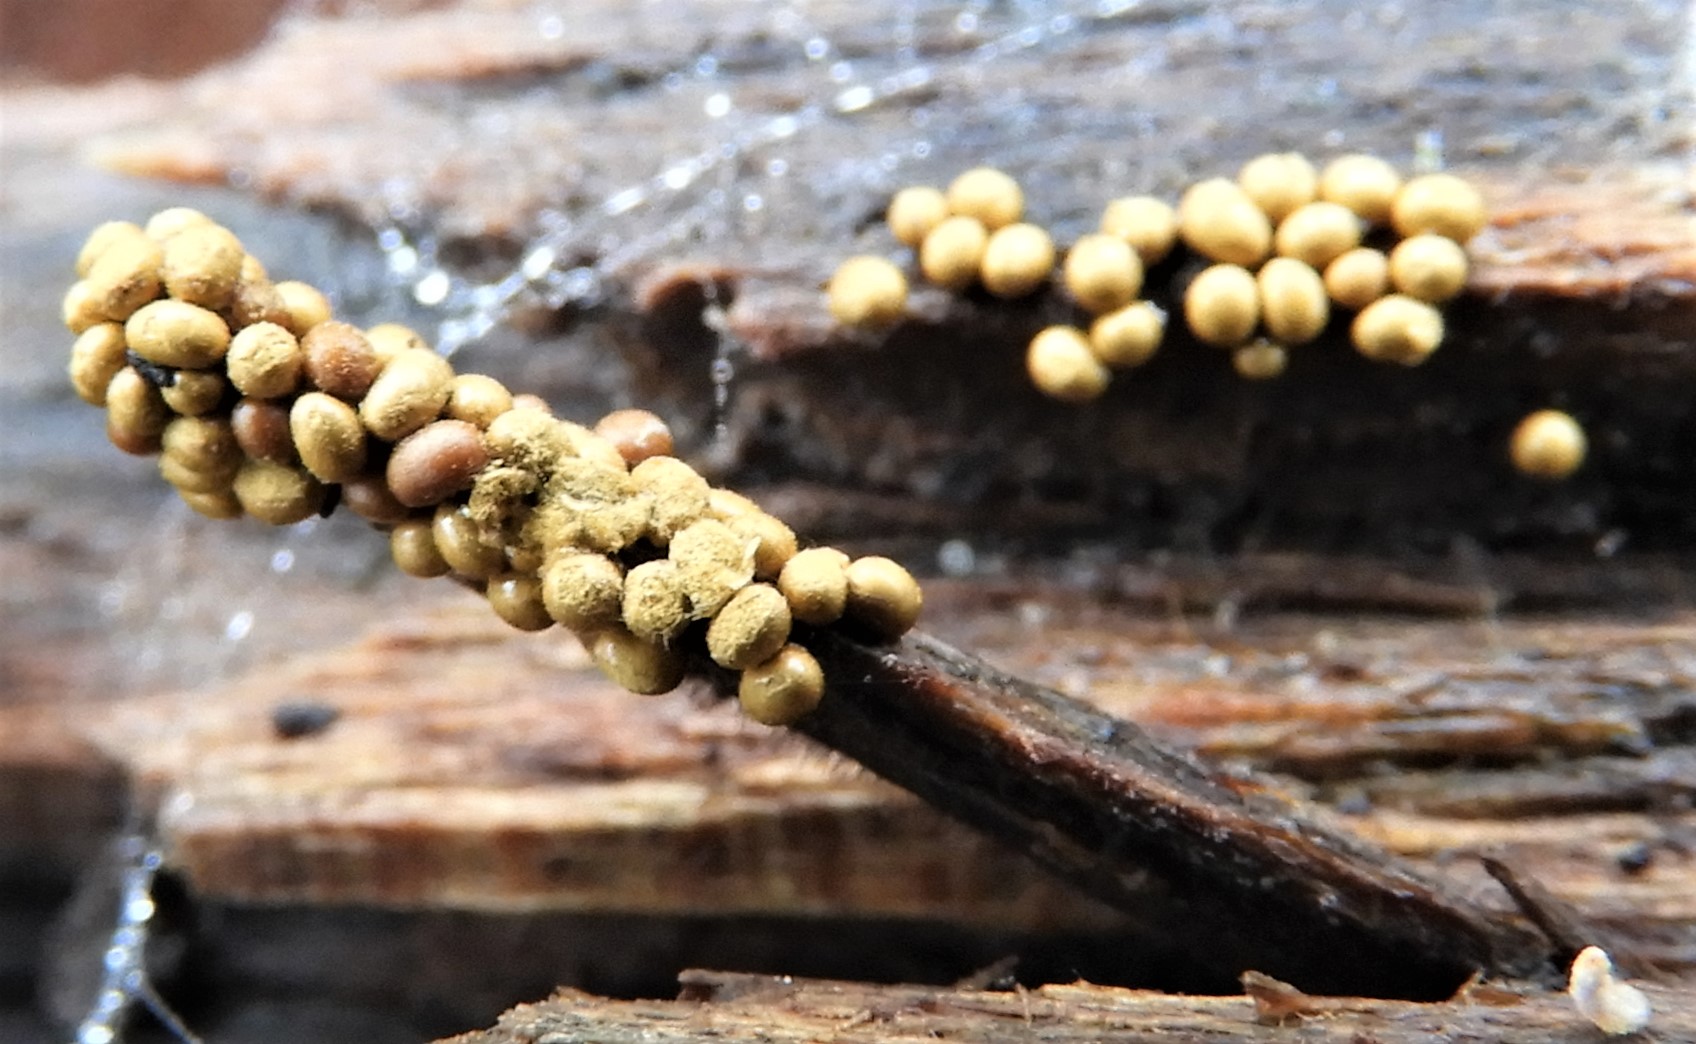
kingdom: Protozoa
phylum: Mycetozoa
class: Myxomycetes
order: Trichiales
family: Trichiaceae
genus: Trichia
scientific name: Trichia varia
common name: foranderlig hårbold
